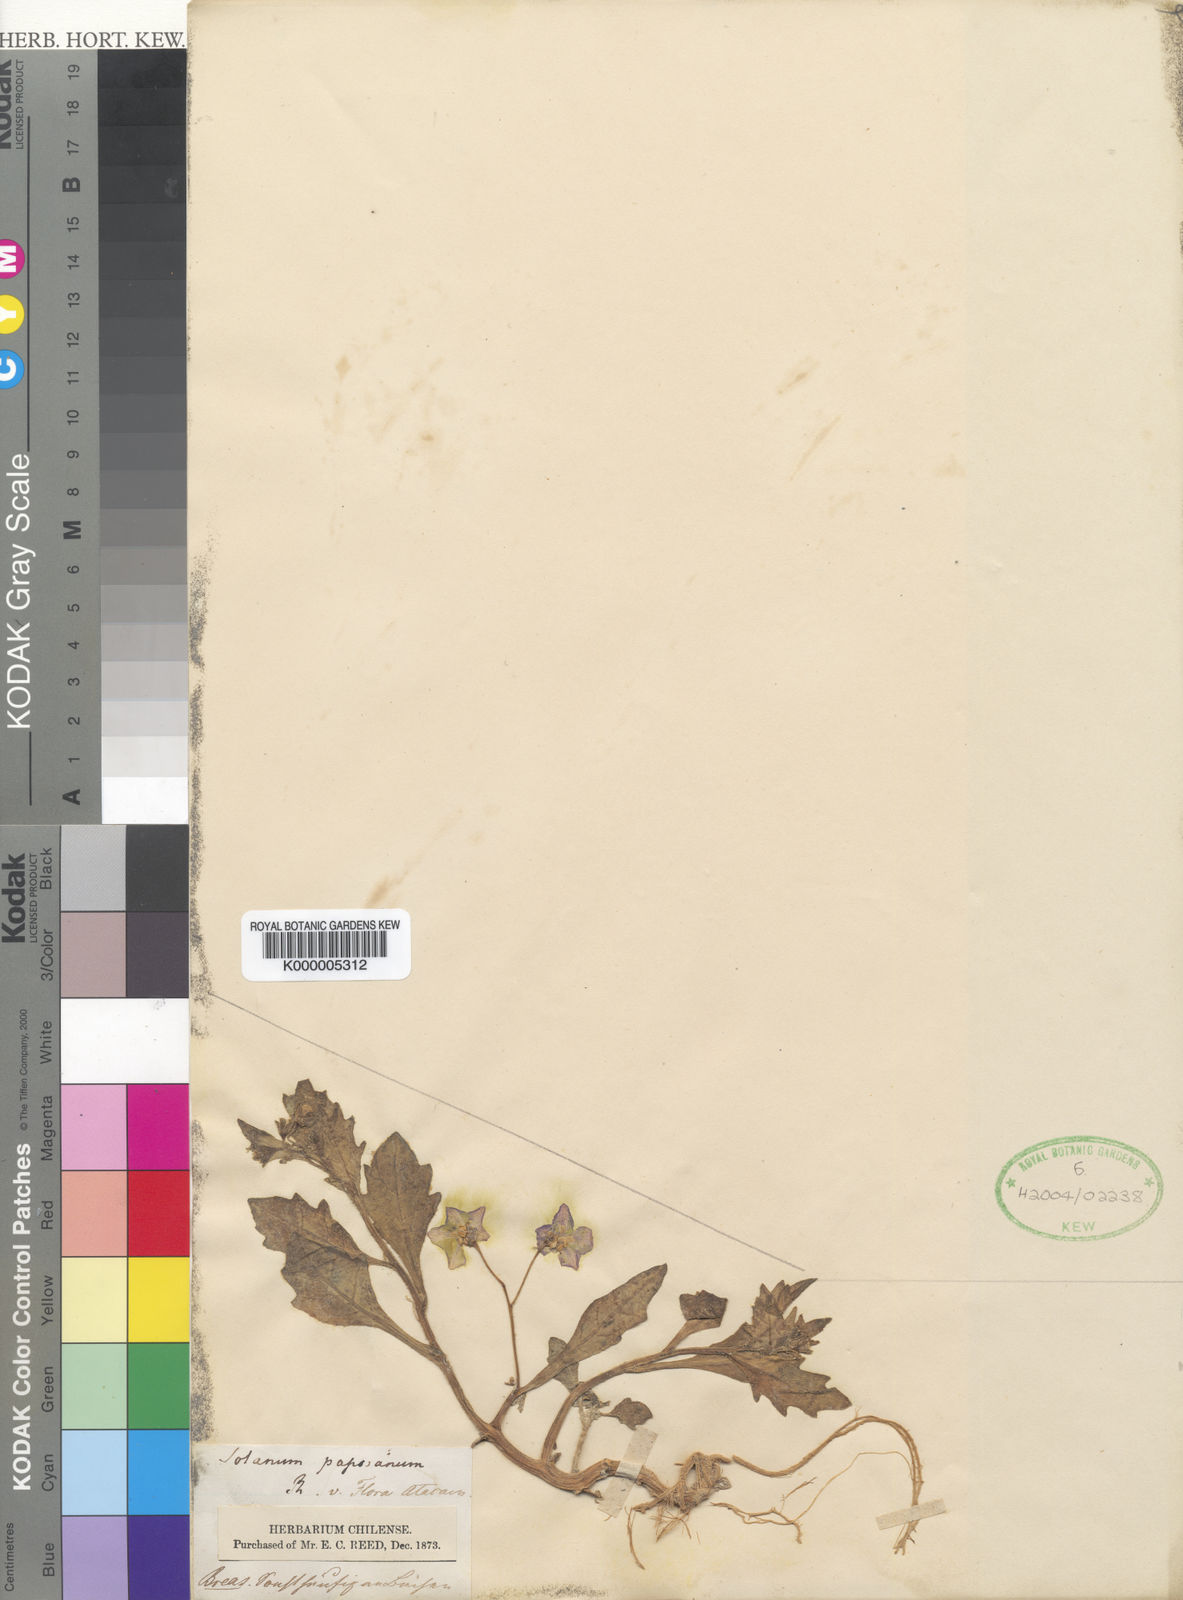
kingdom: Plantae
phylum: Tracheophyta
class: Magnoliopsida
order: Solanales
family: Solanaceae
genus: Solanum
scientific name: Solanum paposanum
